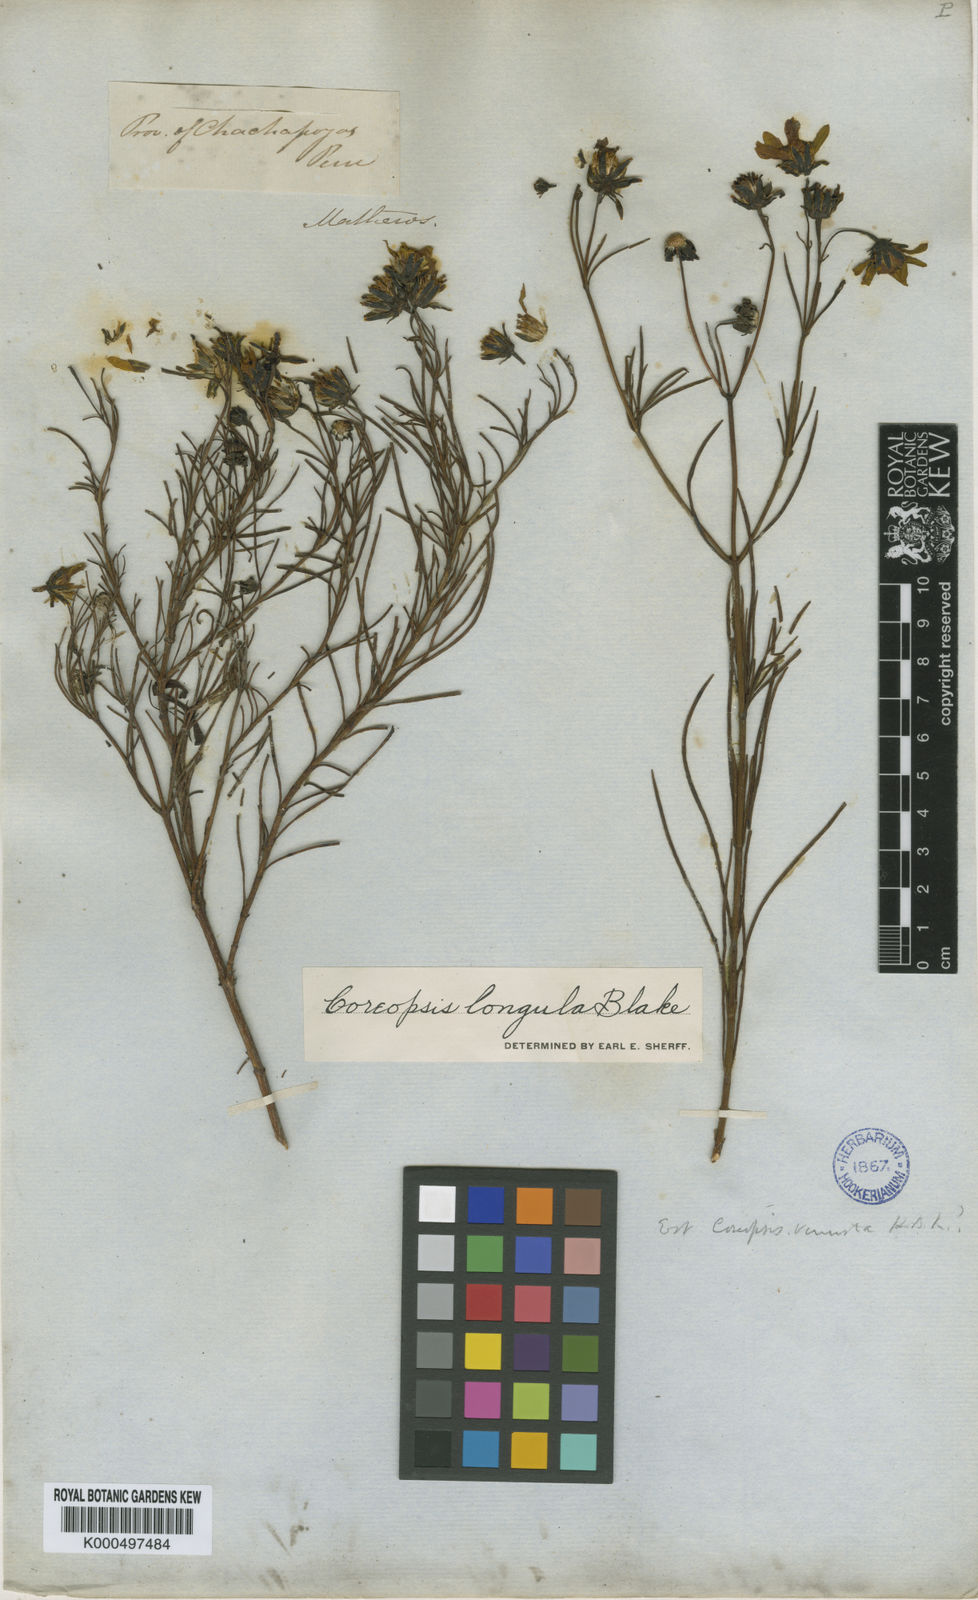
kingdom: Plantae
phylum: Tracheophyta
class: Magnoliopsida
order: Asterales
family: Asteraceae
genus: Coreopsis
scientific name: Coreopsis longula
